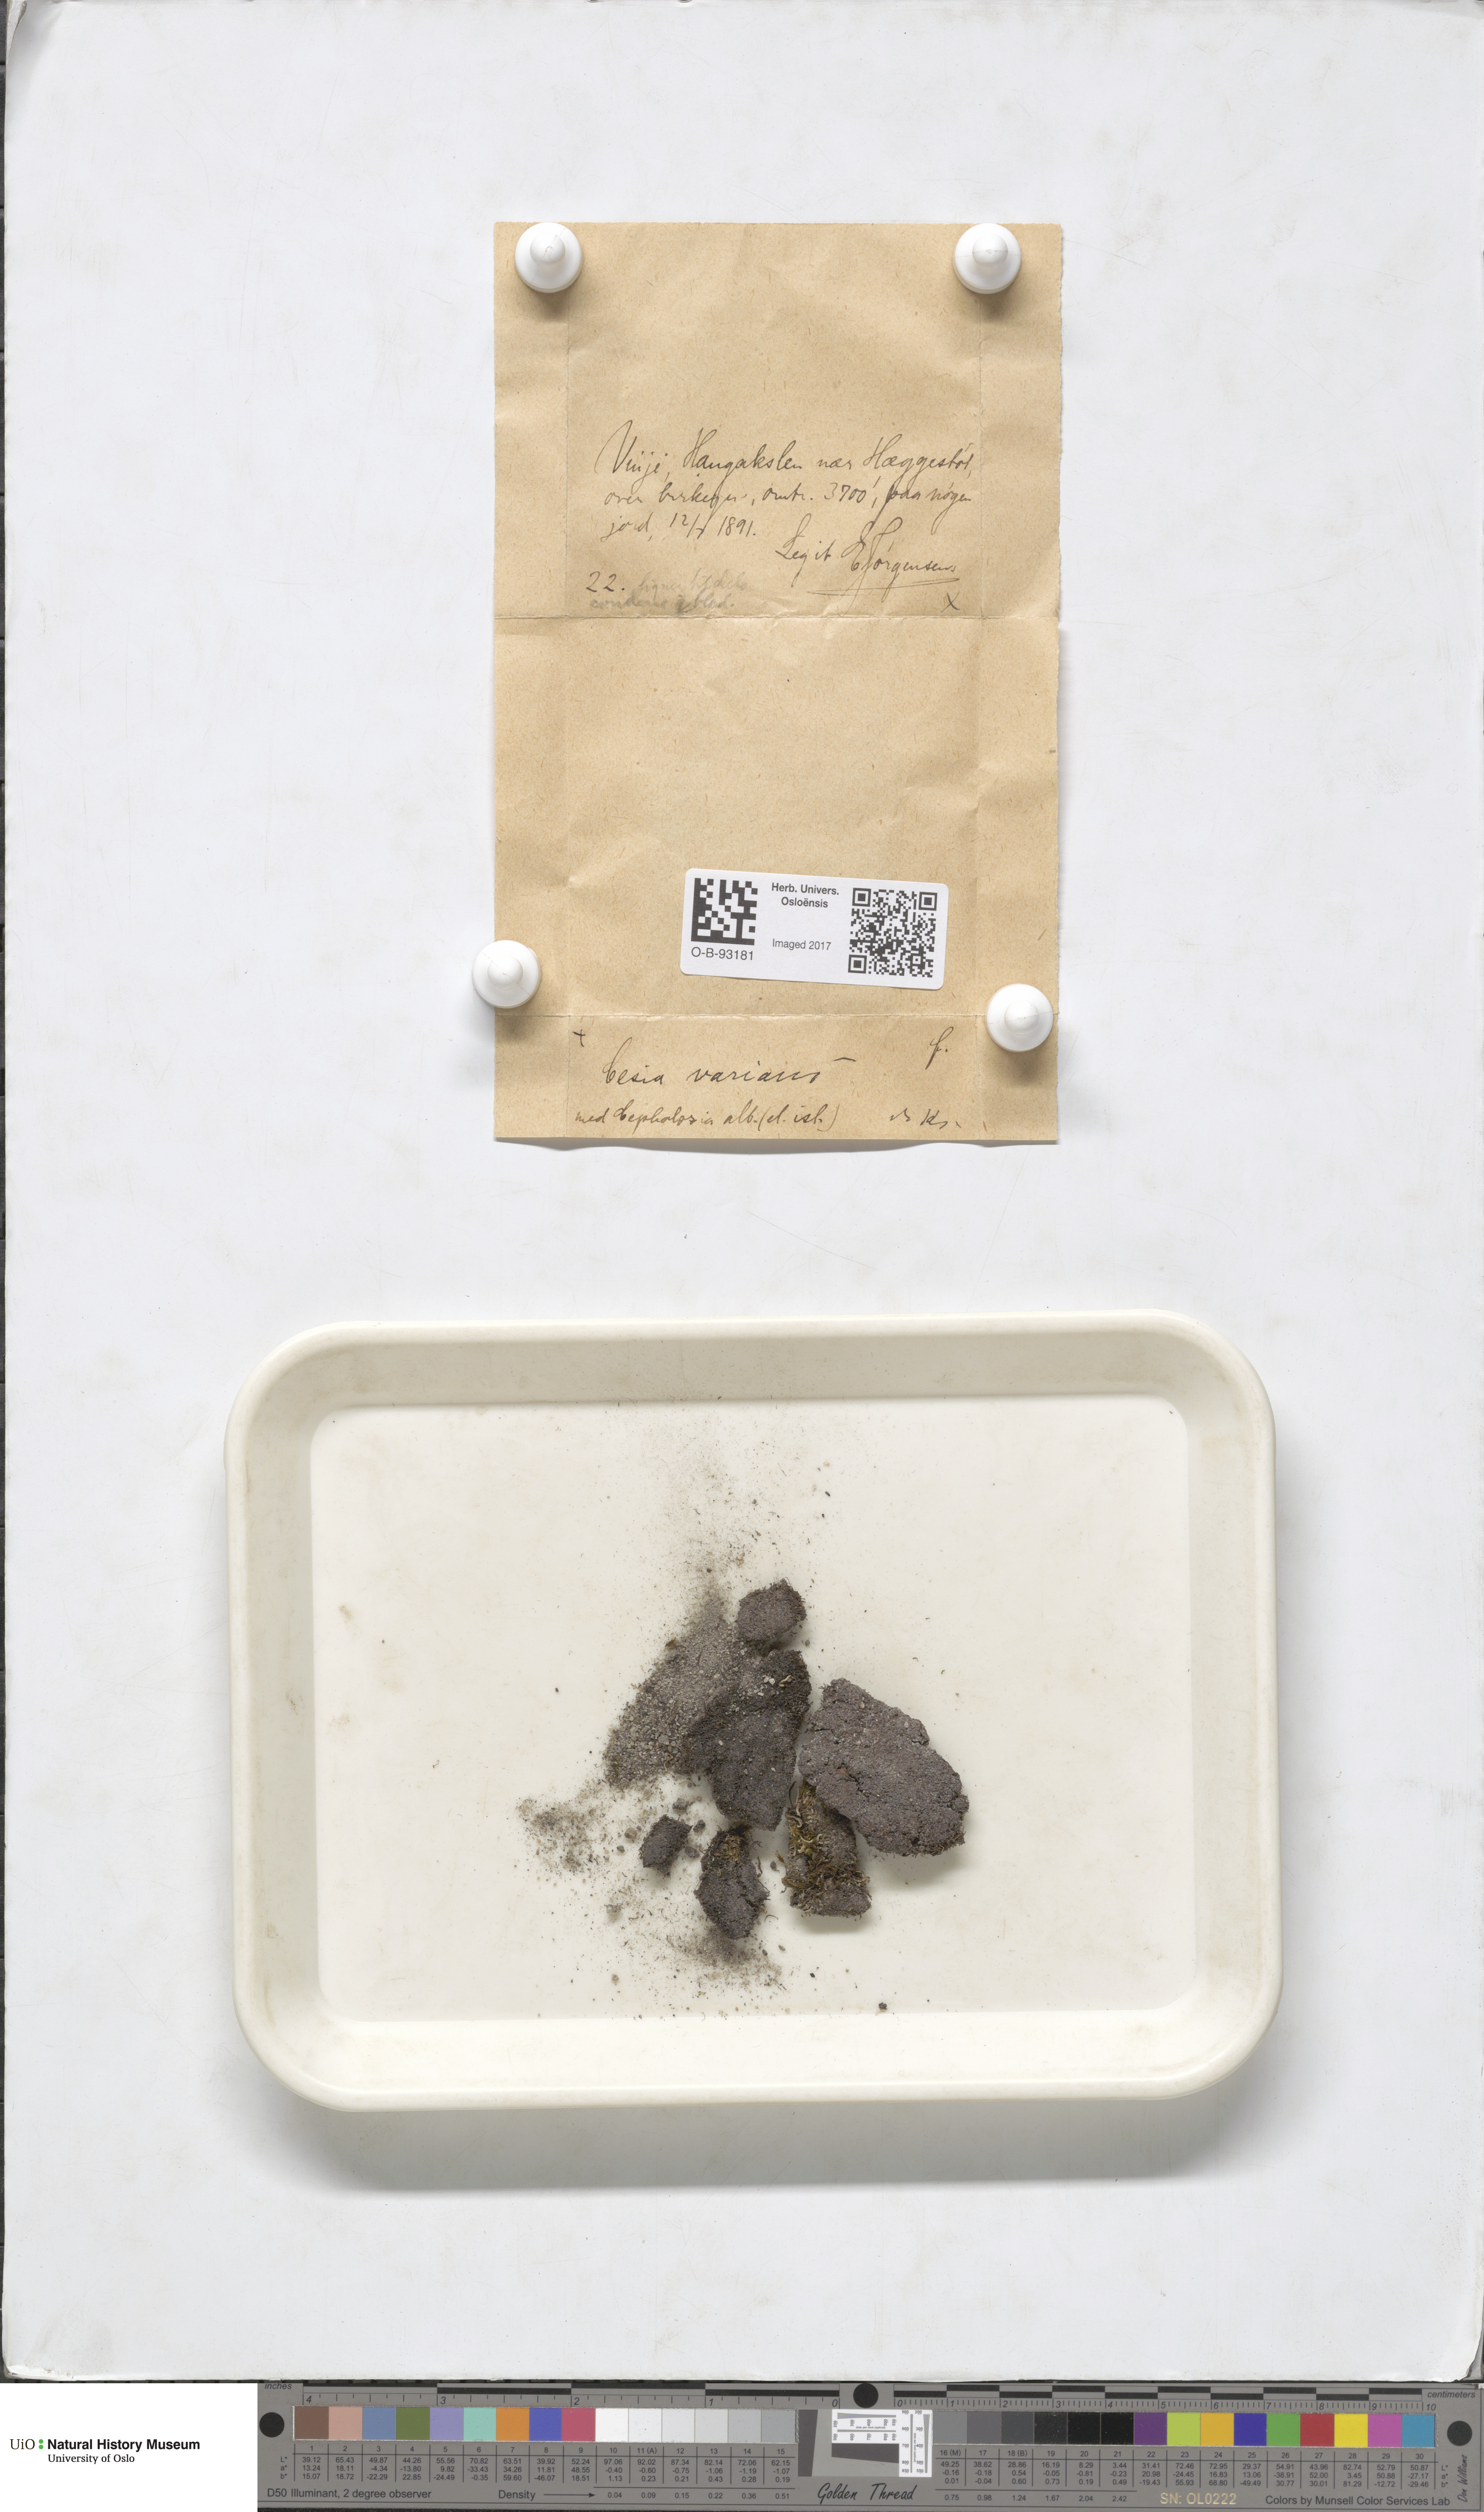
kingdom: Plantae
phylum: Marchantiophyta
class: Jungermanniopsida
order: Jungermanniales
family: Gymnomitriaceae
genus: Gymnomitrion
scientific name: Gymnomitrion brevissimum
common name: Snow rustwort
